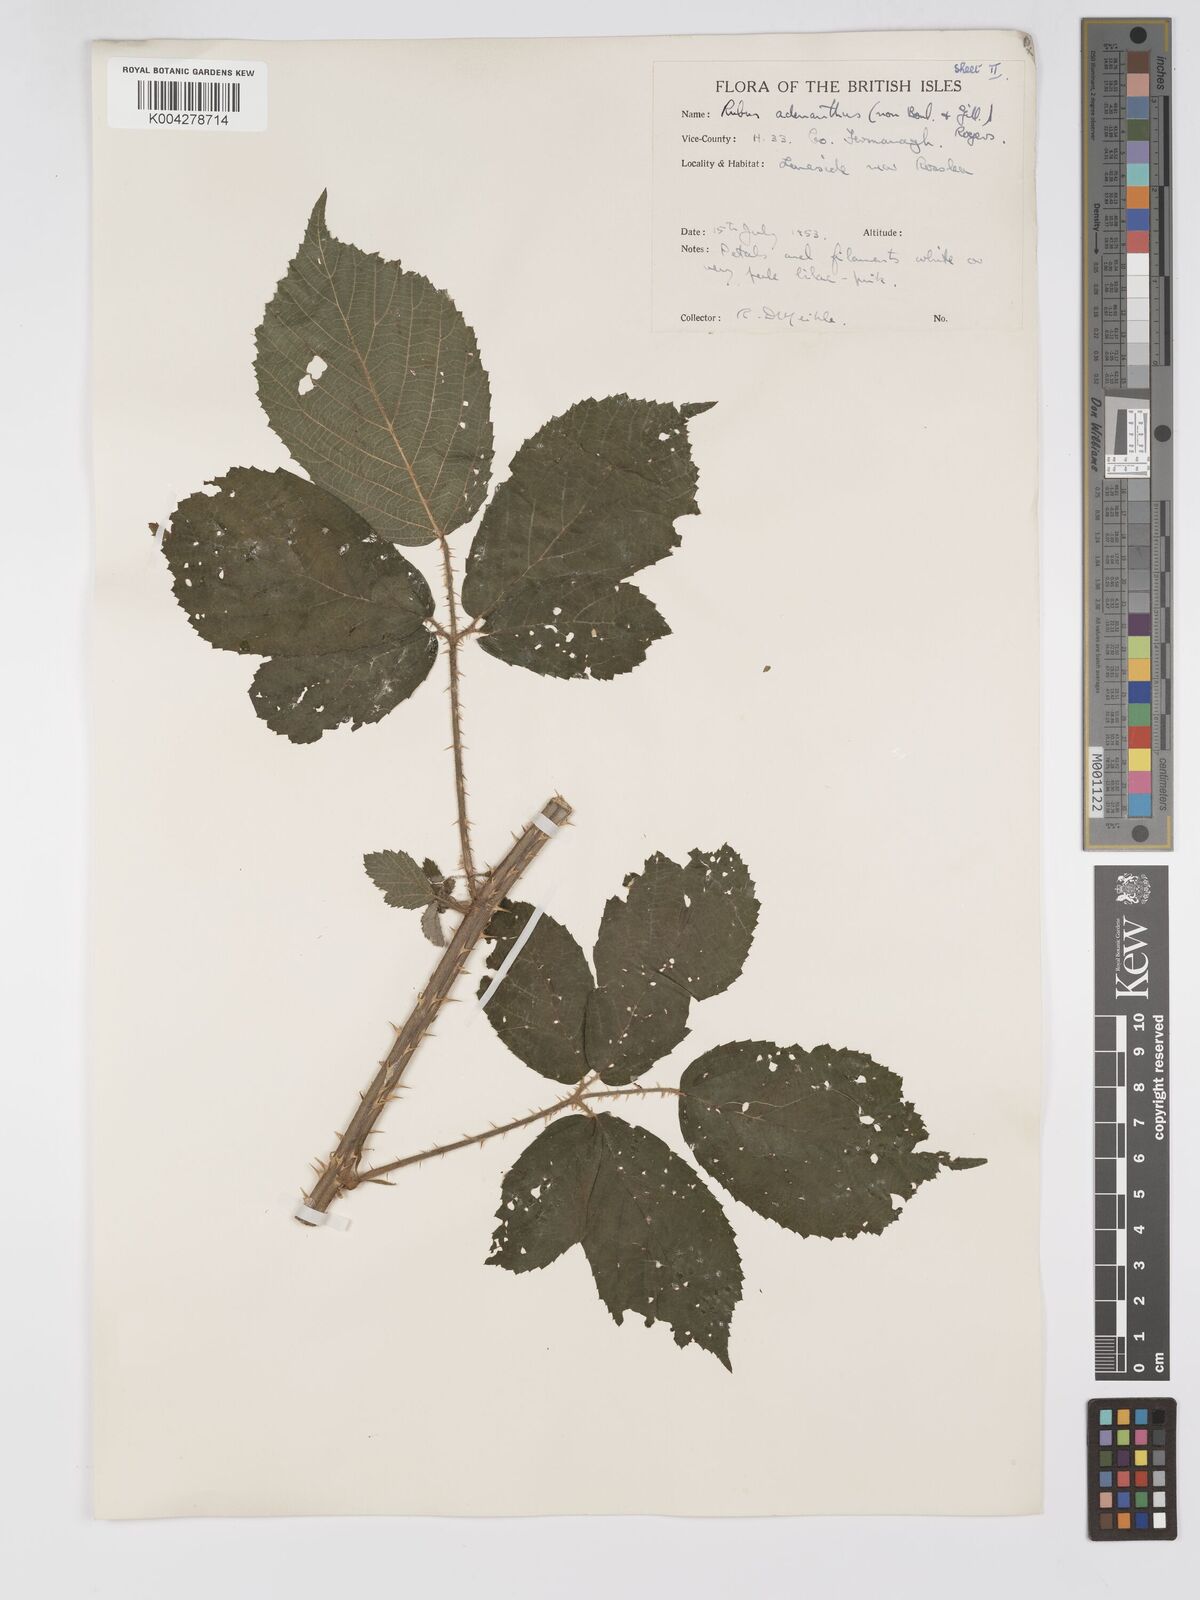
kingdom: Plantae
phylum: Tracheophyta
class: Magnoliopsida
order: Rosales
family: Rosaceae
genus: Rubus
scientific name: Rubus swinhoei
